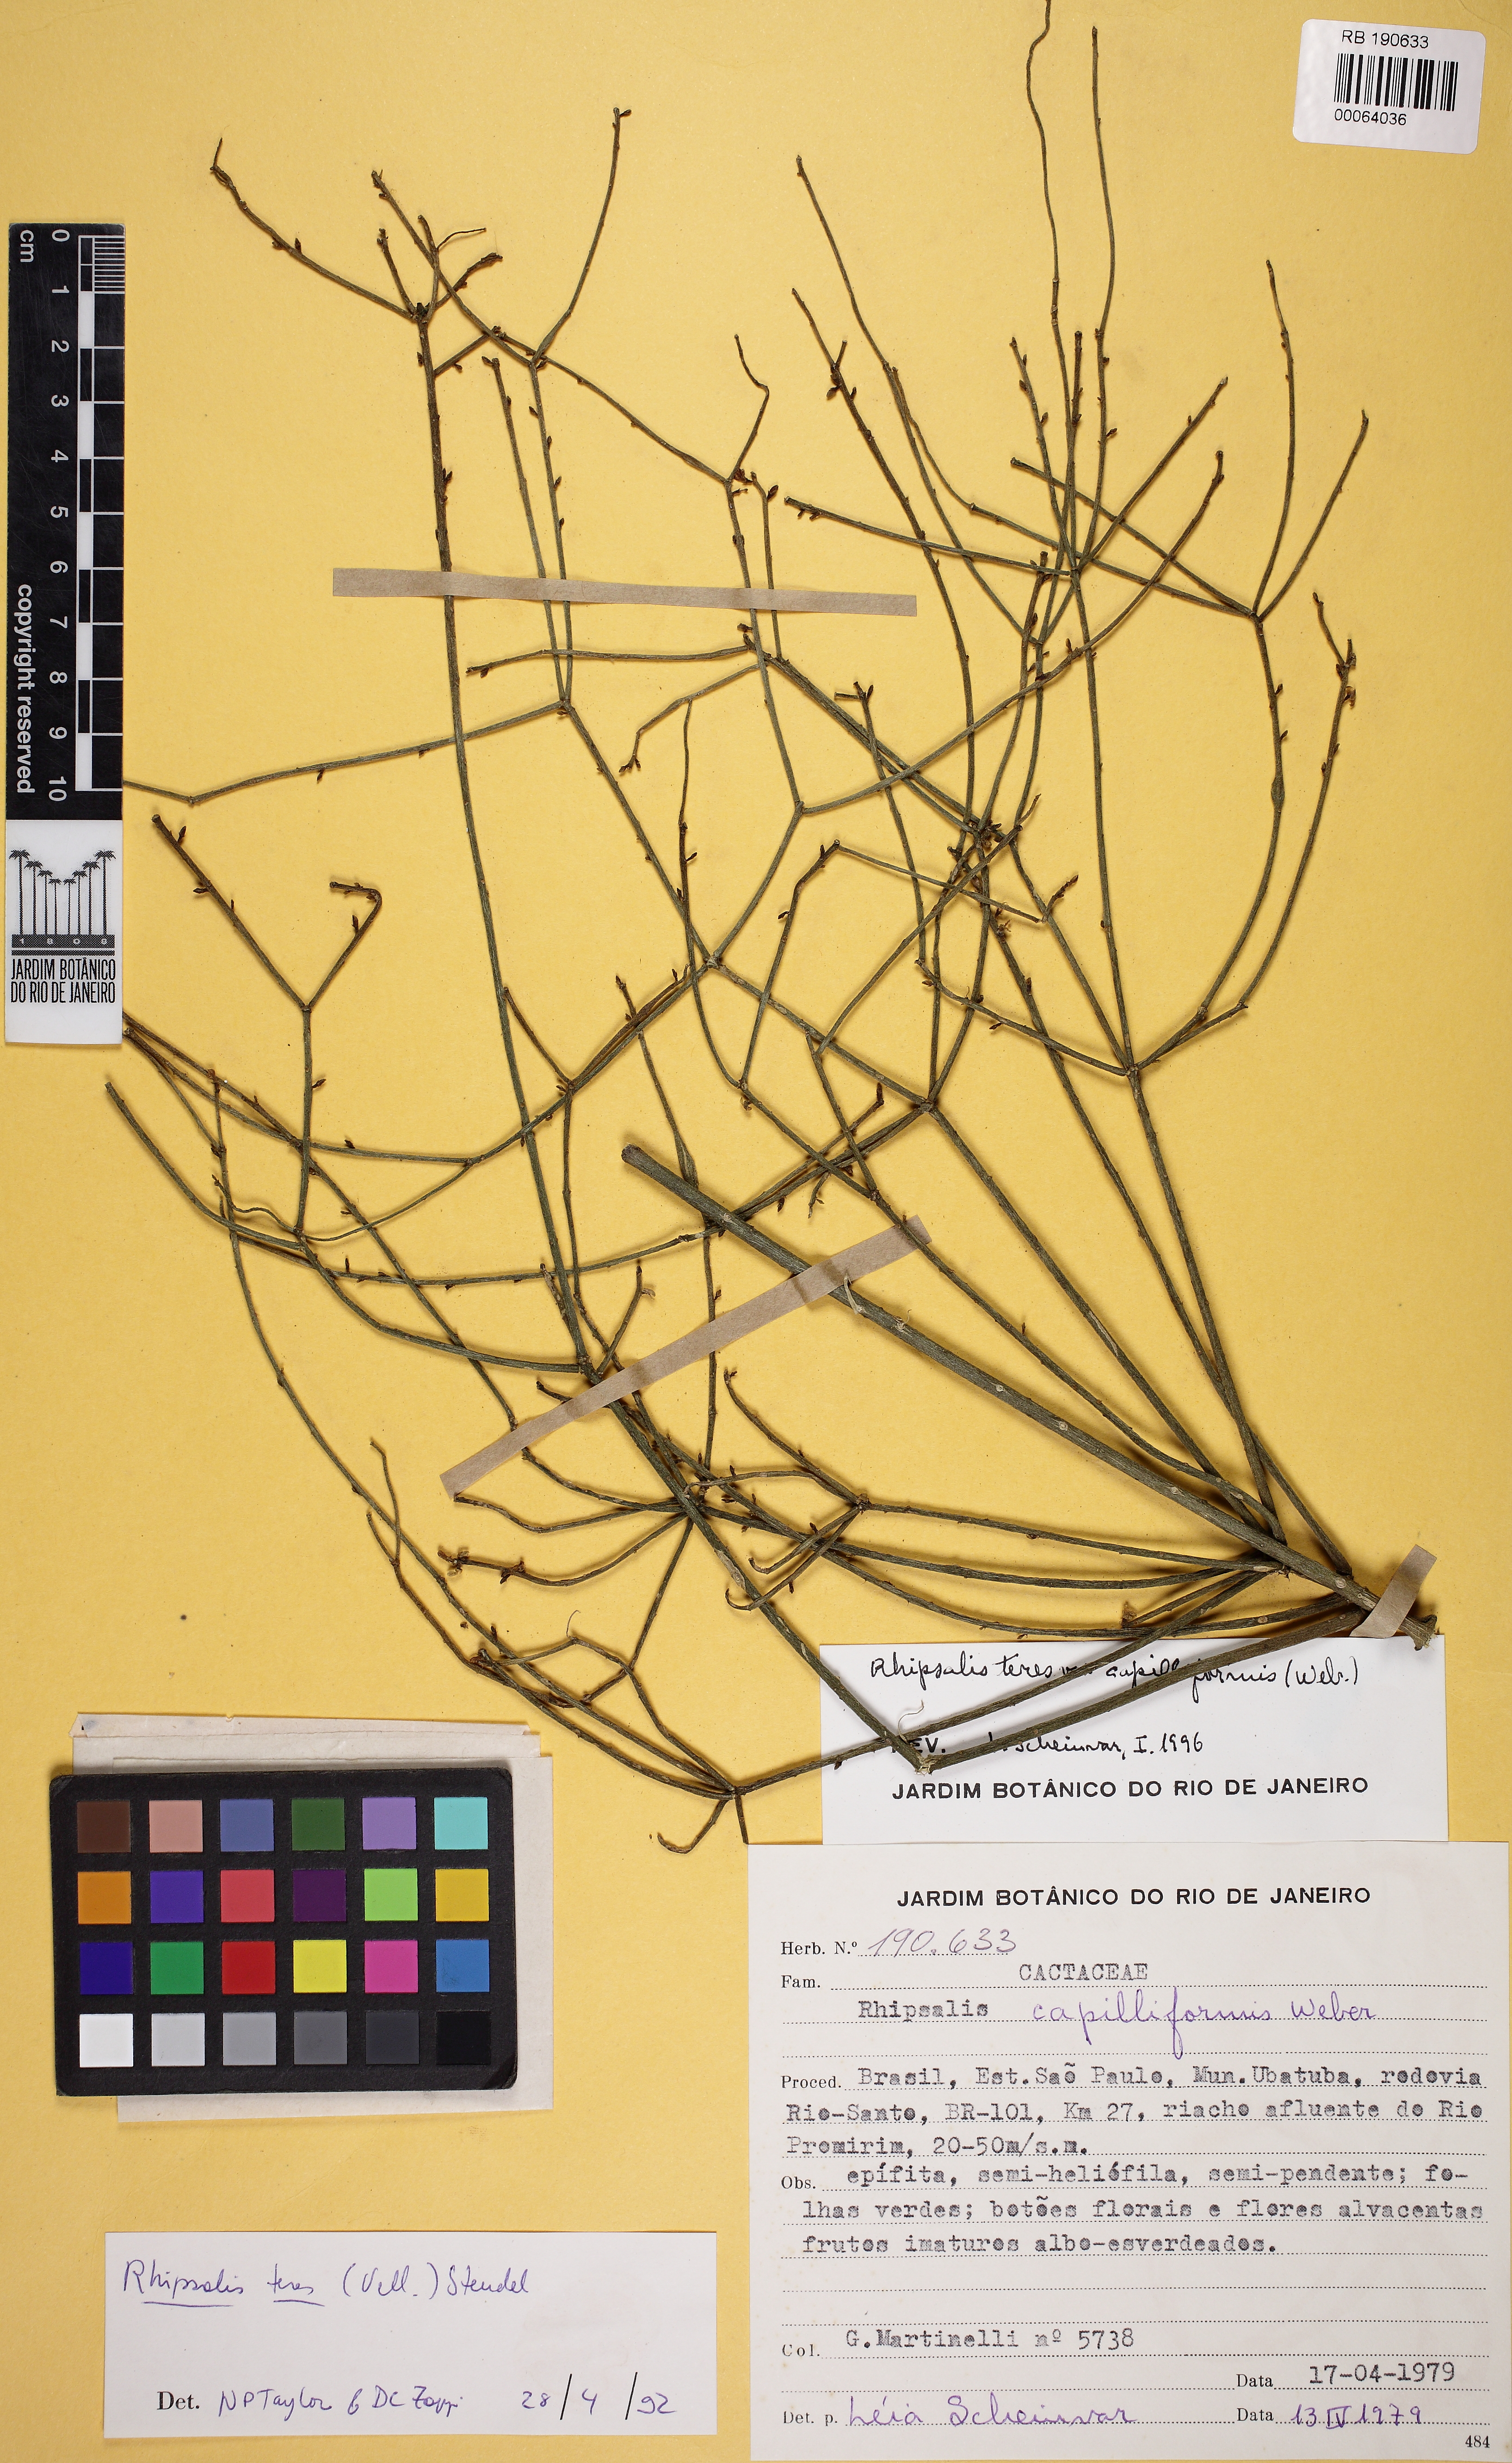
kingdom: Plantae
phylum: Tracheophyta
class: Magnoliopsida
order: Caryophyllales
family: Cactaceae
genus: Rhipsalis
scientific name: Rhipsalis teres
